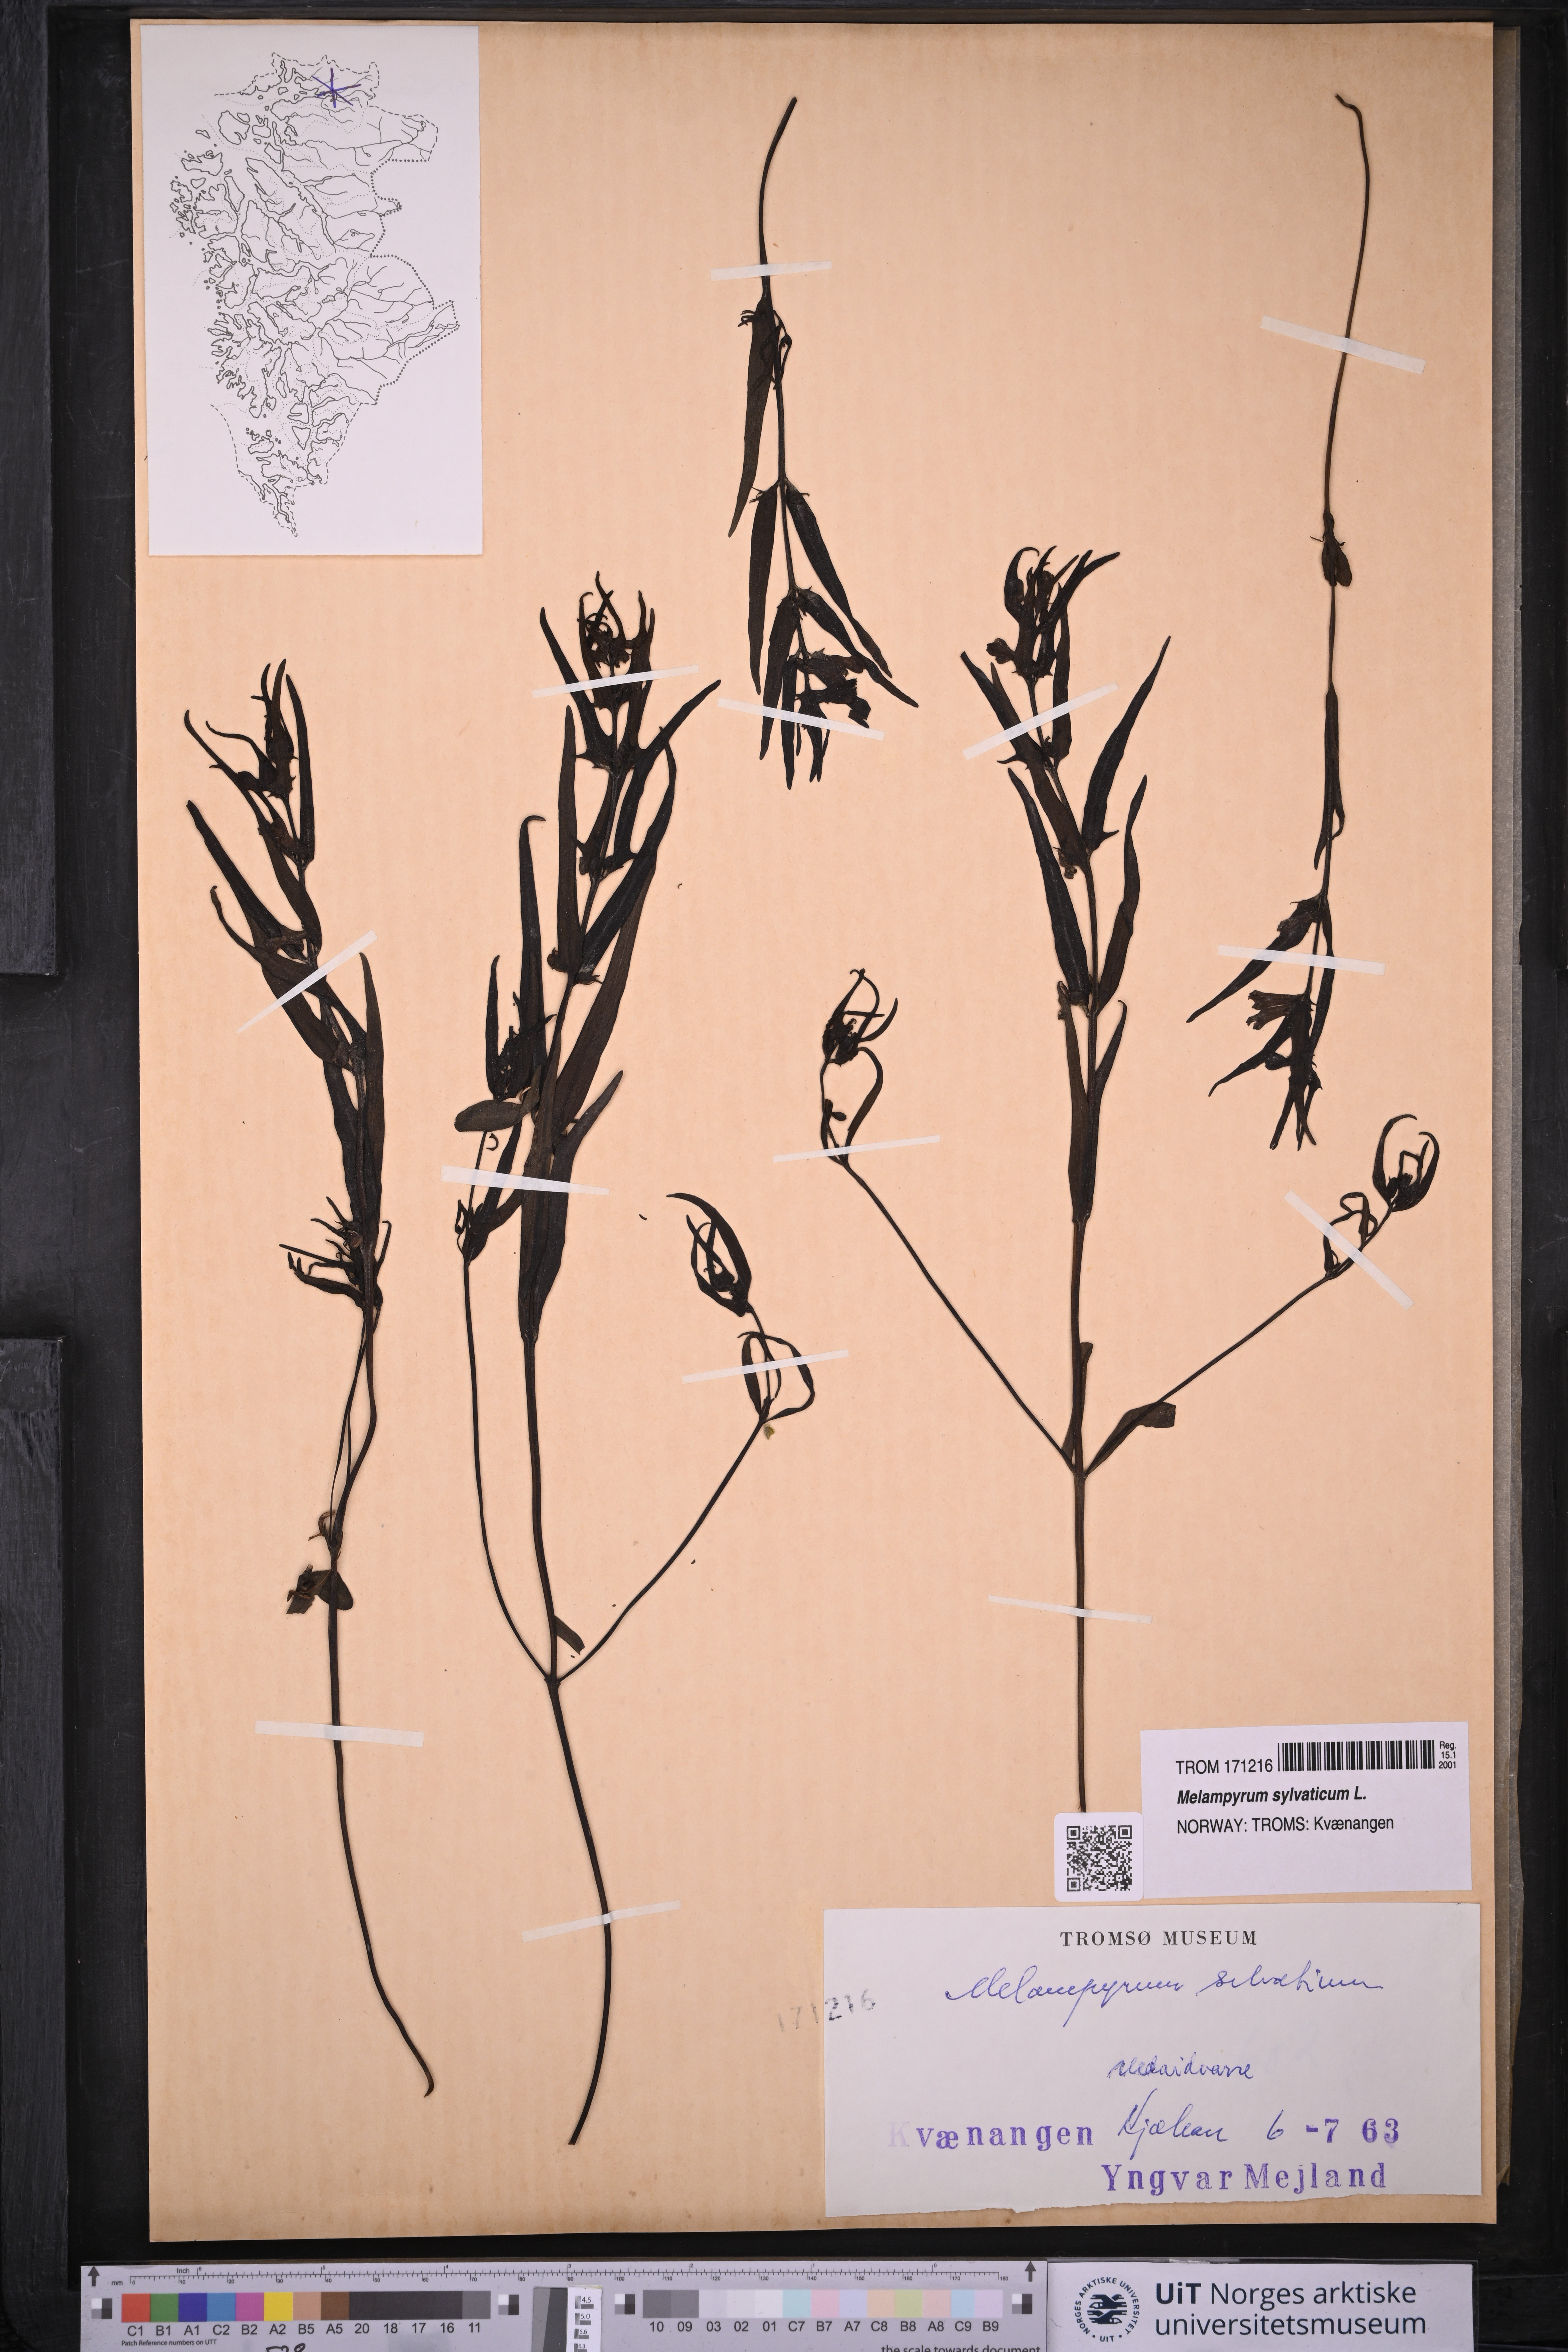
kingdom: Plantae
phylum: Tracheophyta
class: Magnoliopsida
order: Lamiales
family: Orobanchaceae
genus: Melampyrum
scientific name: Melampyrum sylvaticum
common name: Small cow-wheat
